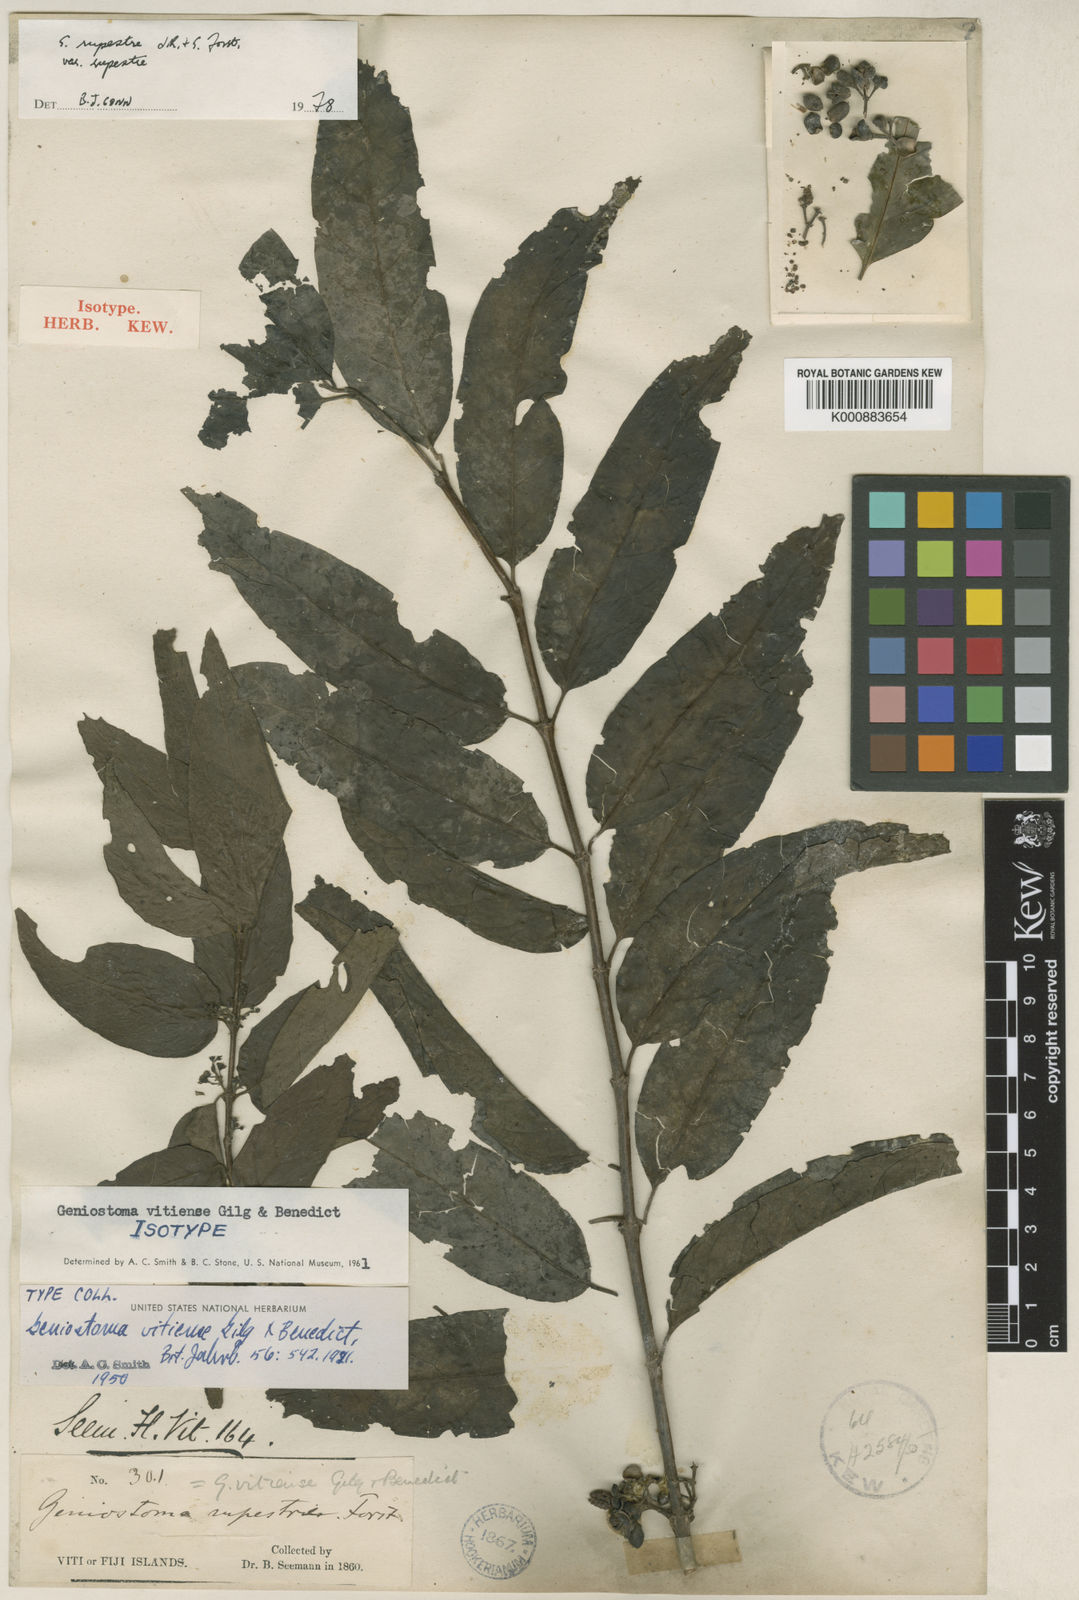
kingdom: Plantae
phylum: Tracheophyta
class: Magnoliopsida
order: Gentianales
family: Loganiaceae
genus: Geniostoma
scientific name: Geniostoma rupestre
